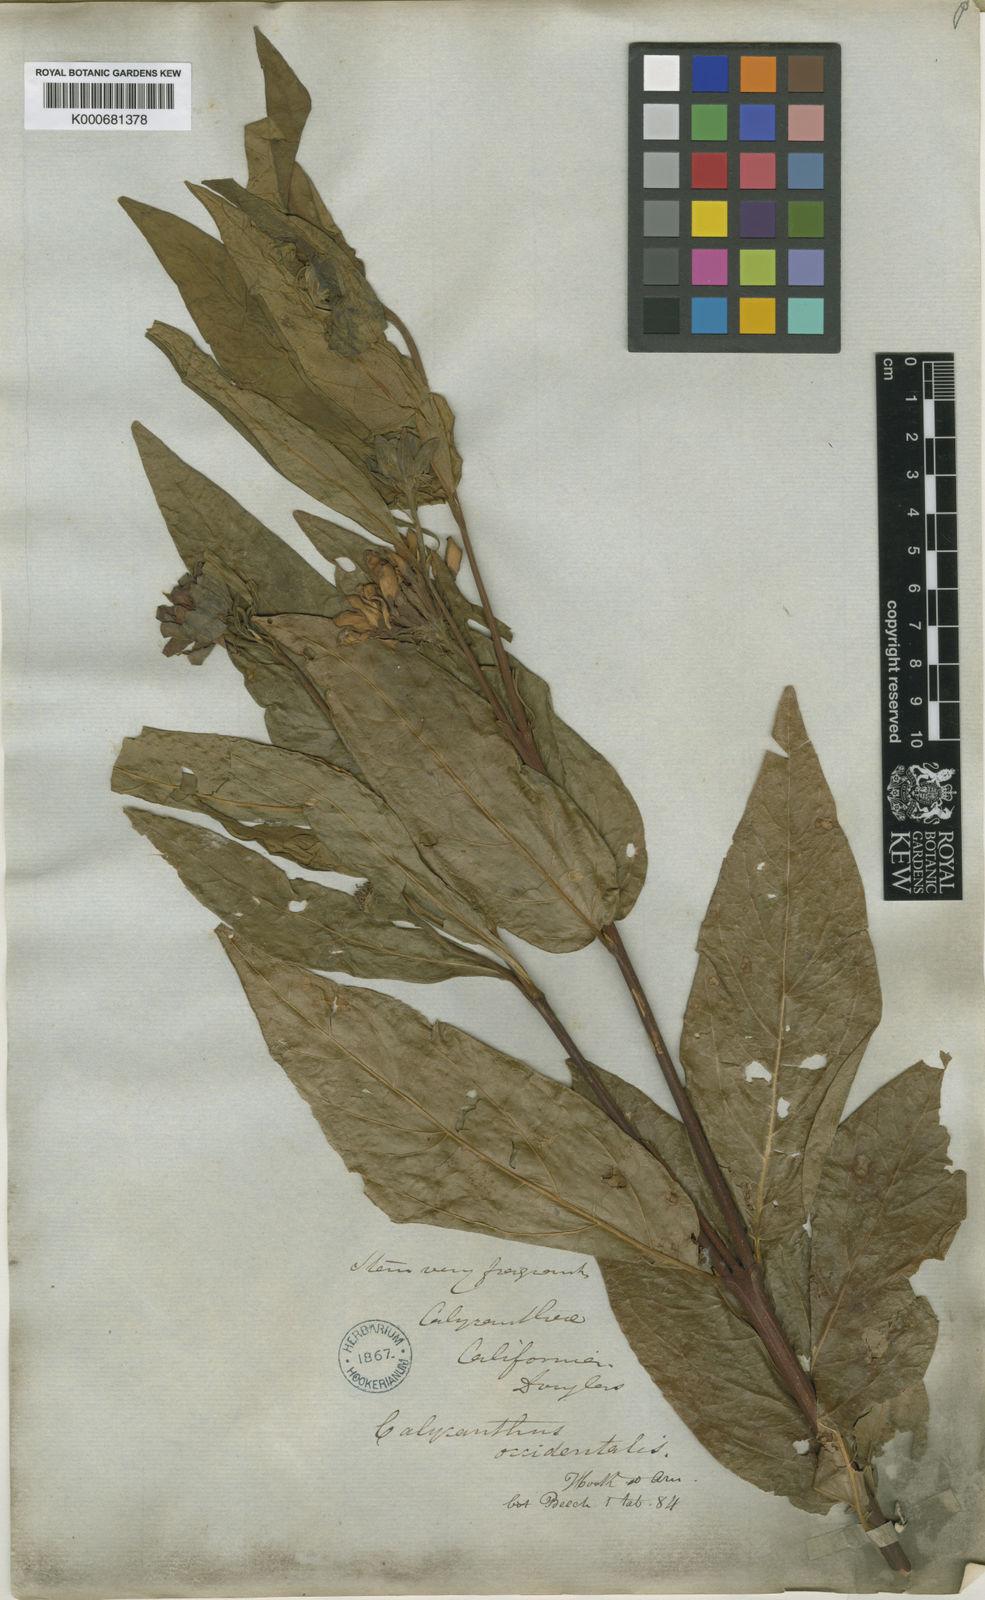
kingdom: Plantae
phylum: Tracheophyta
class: Magnoliopsida
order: Laurales
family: Calycanthaceae
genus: Calycanthus
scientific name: Calycanthus occidentalis
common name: California spicebush
